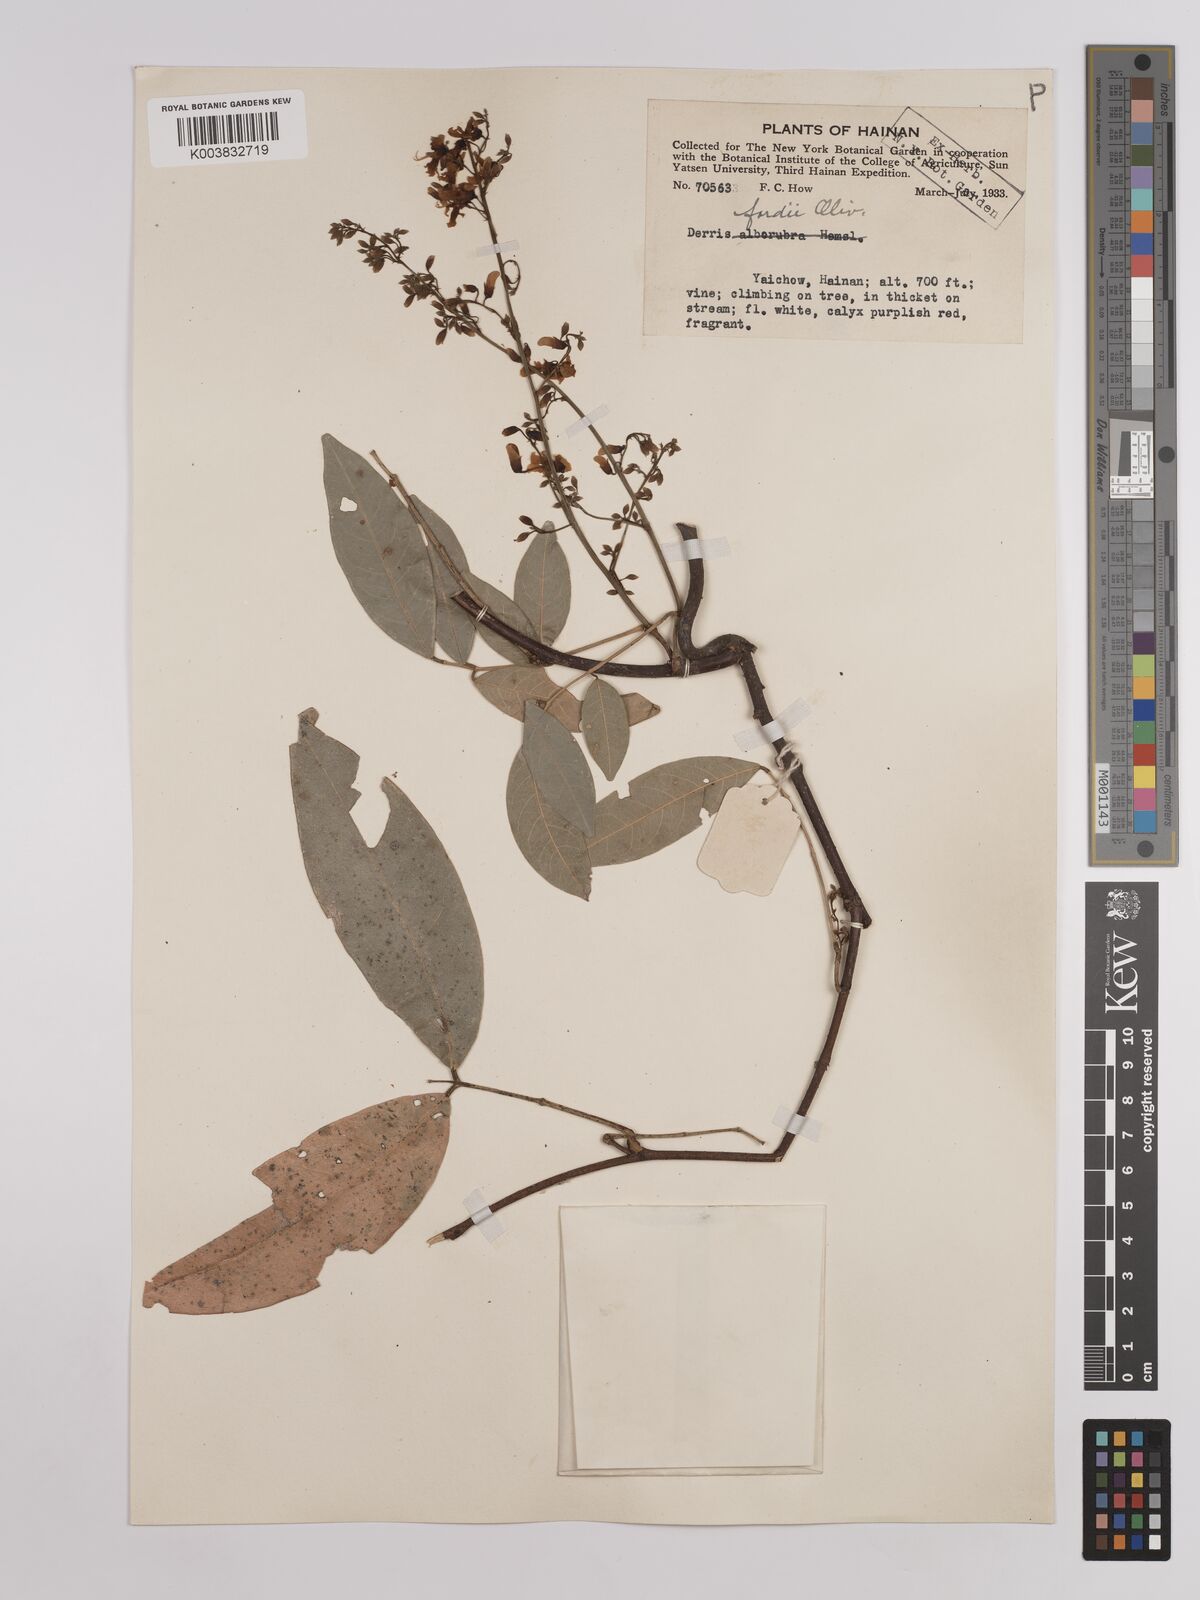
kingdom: Plantae
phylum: Tracheophyta
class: Magnoliopsida
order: Fabales
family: Fabaceae
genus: Derris
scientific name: Derris fordii
